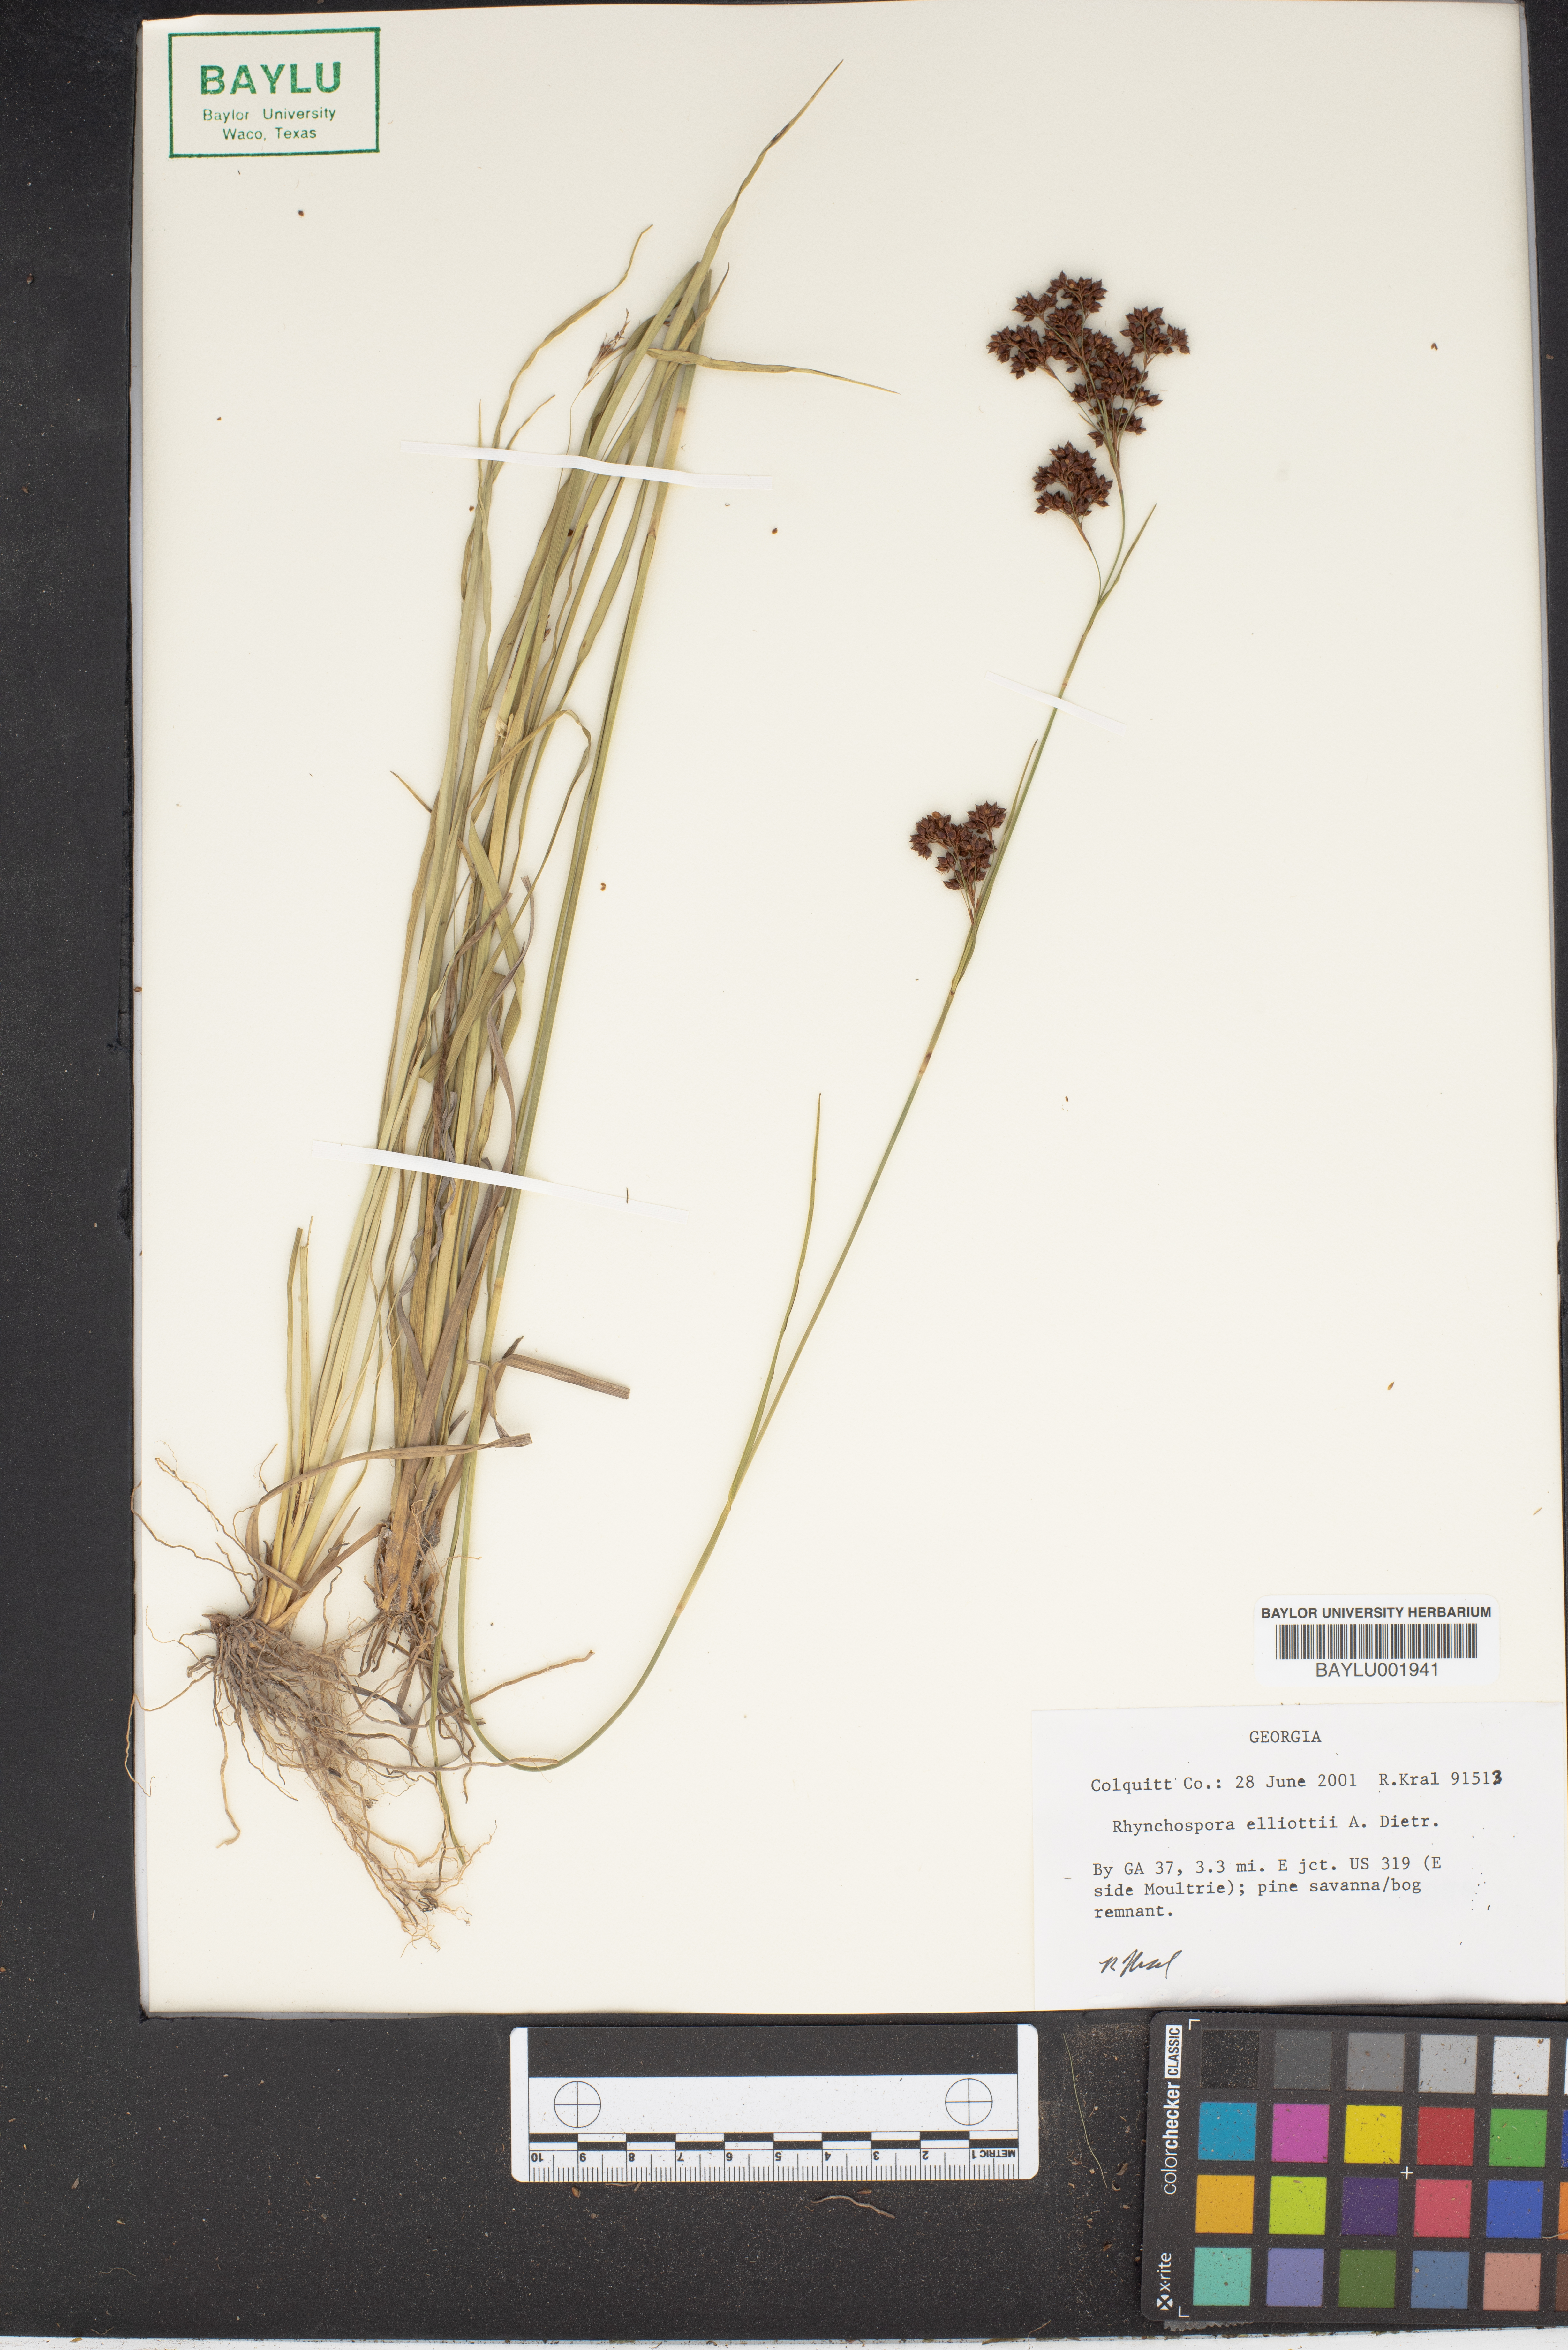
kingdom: Plantae
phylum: Tracheophyta
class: Liliopsida
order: Poales
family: Cyperaceae
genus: Rhynchospora
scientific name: Rhynchospora elliottii
